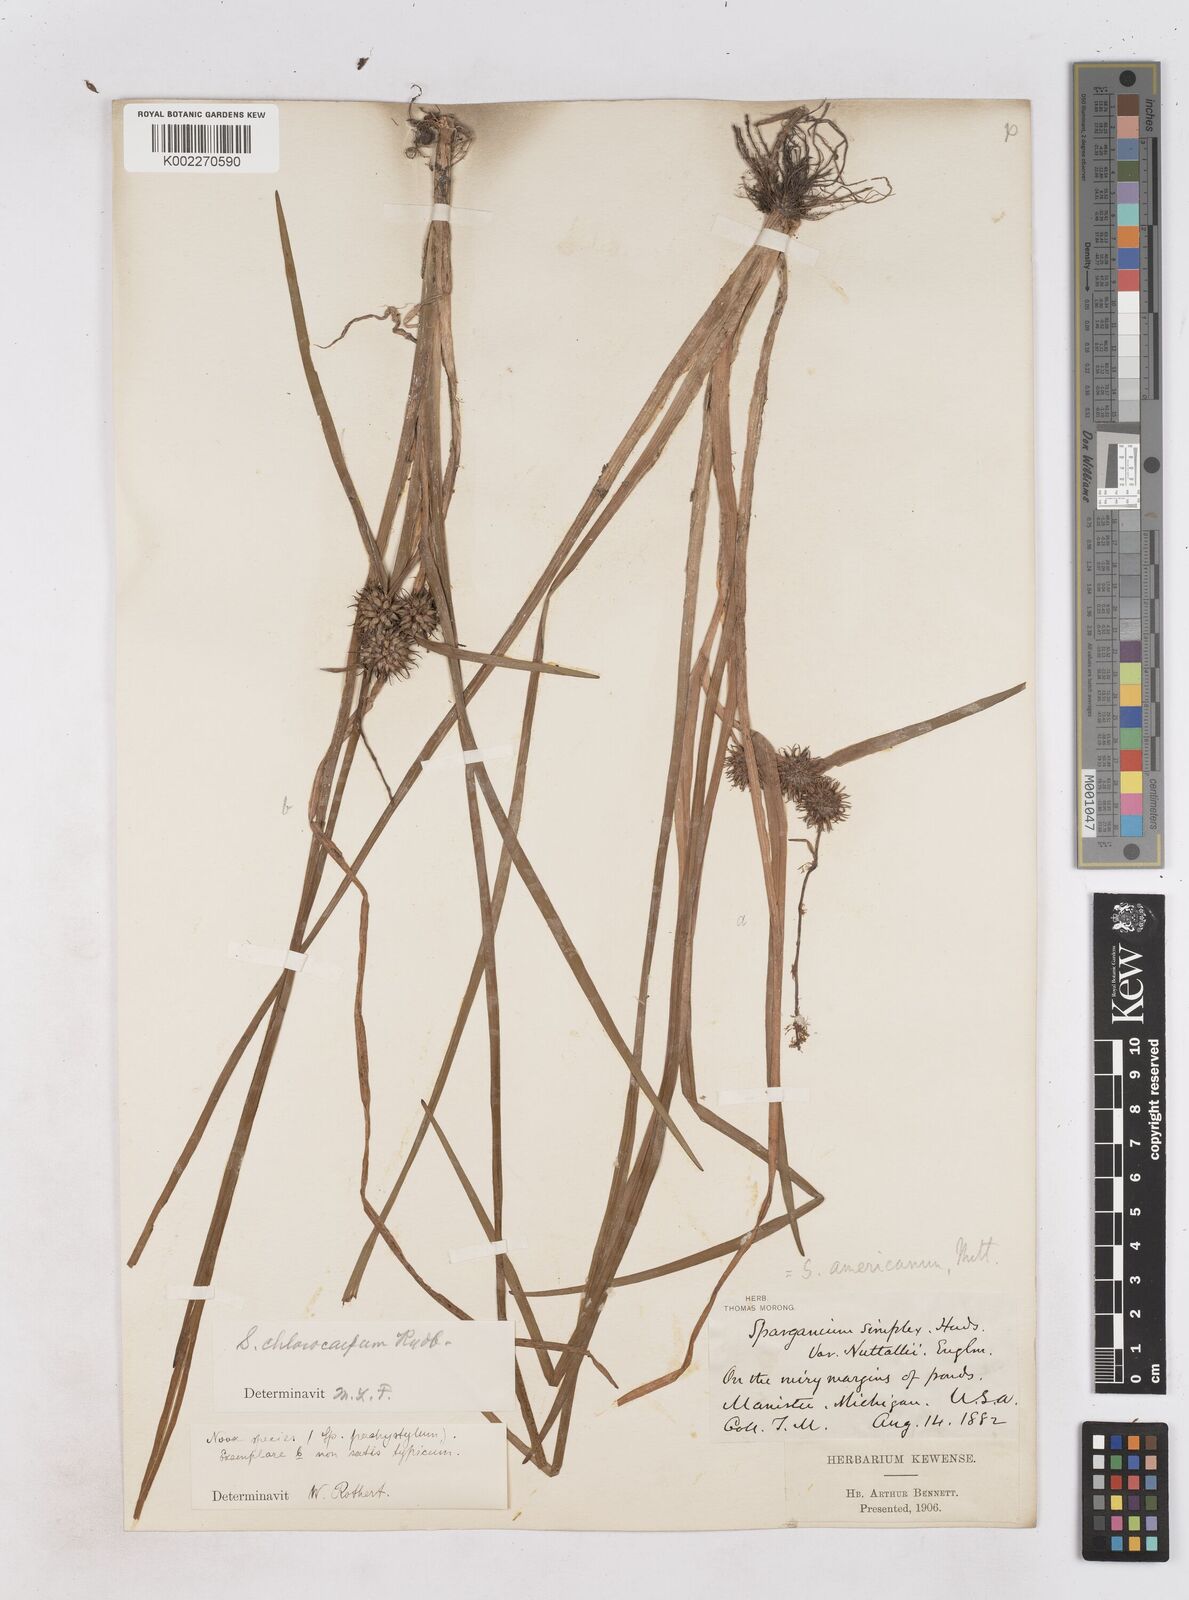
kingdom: Plantae
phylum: Tracheophyta
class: Liliopsida
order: Poales
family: Typhaceae
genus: Sparganium
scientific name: Sparganium emersum
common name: Unbranched bur-reed
